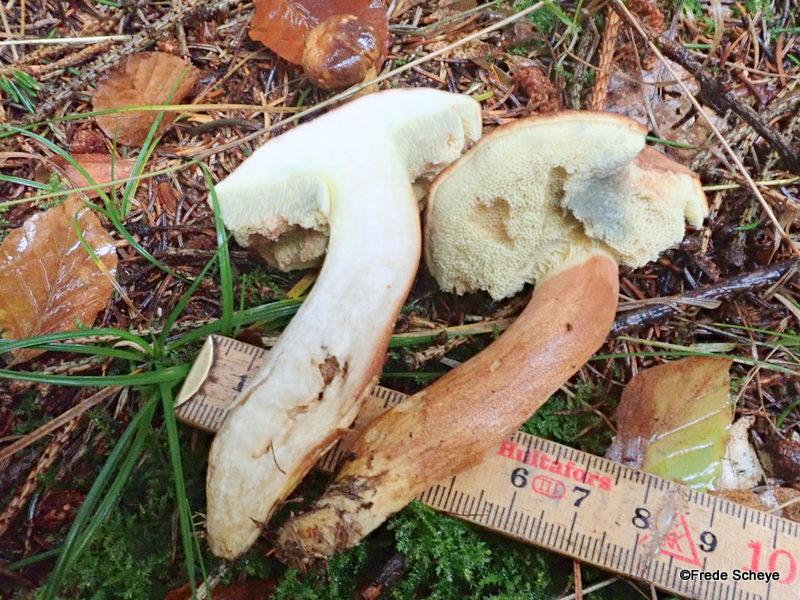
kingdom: Fungi
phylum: Basidiomycota
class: Agaricomycetes
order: Boletales
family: Boletaceae
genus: Imleria
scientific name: Imleria badia
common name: brunstokket rørhat
